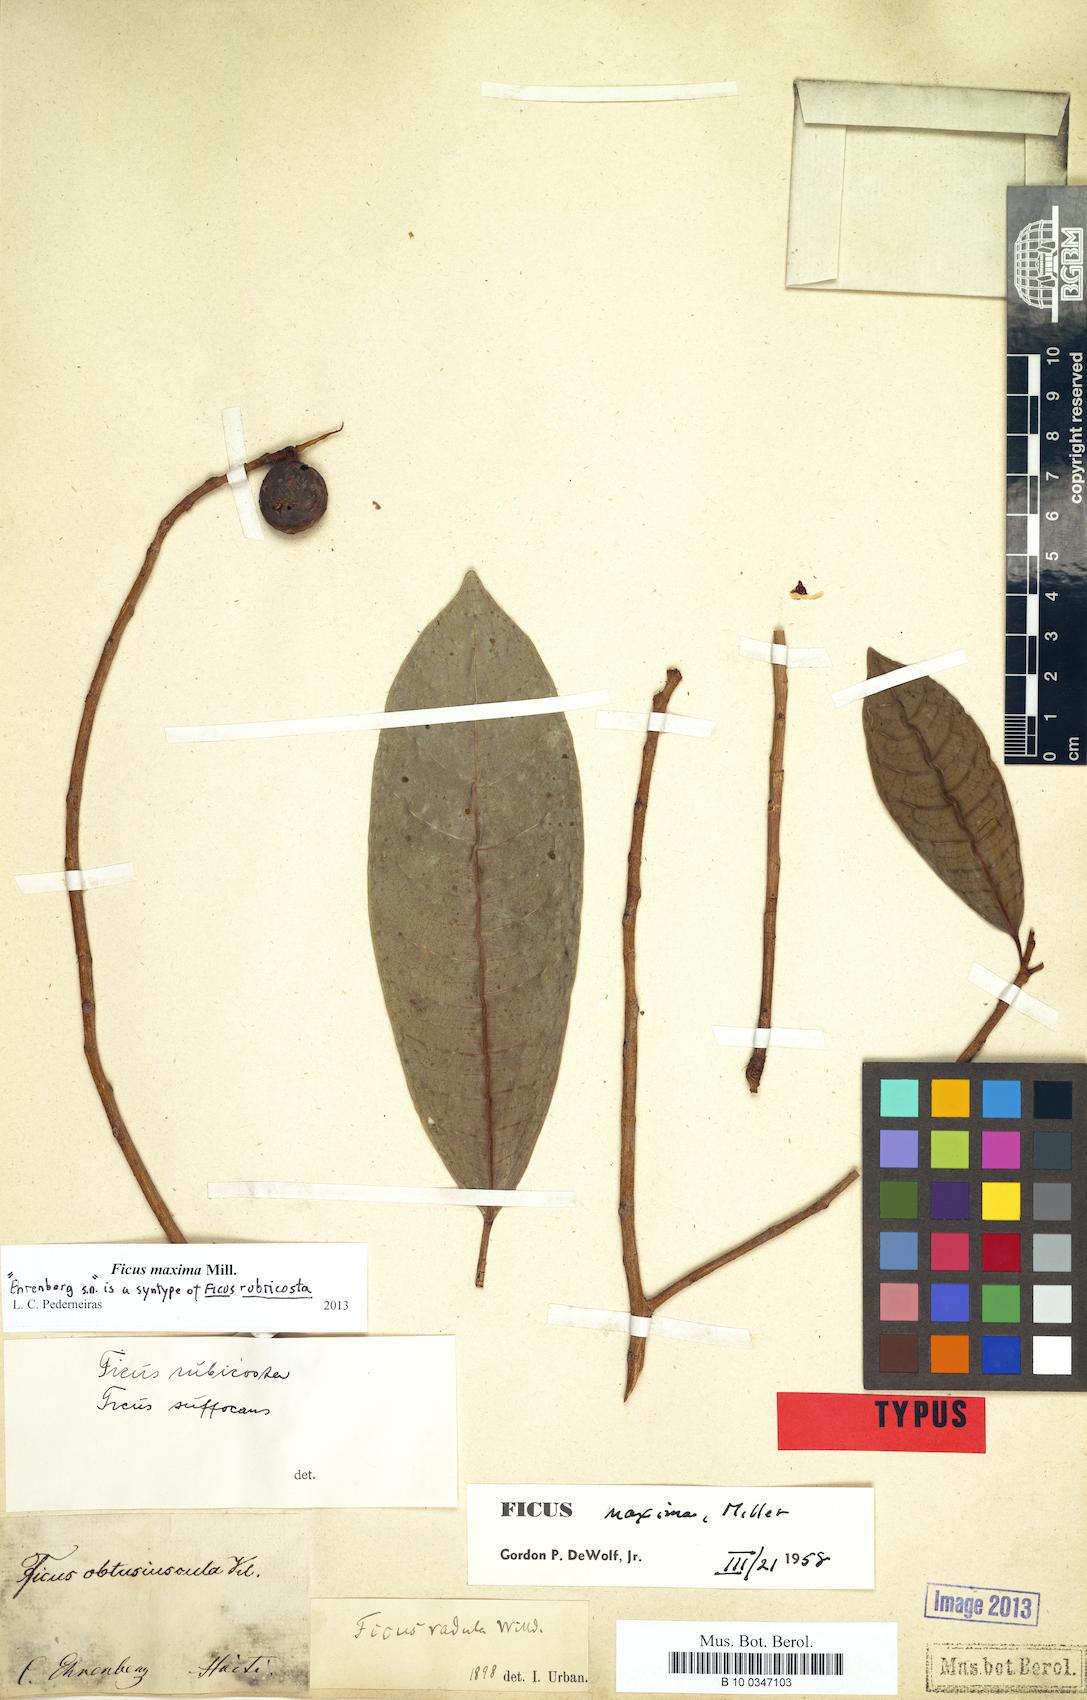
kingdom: Plantae
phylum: Tracheophyta
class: Magnoliopsida
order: Rosales
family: Moraceae
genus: Ficus
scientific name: Ficus maxima
